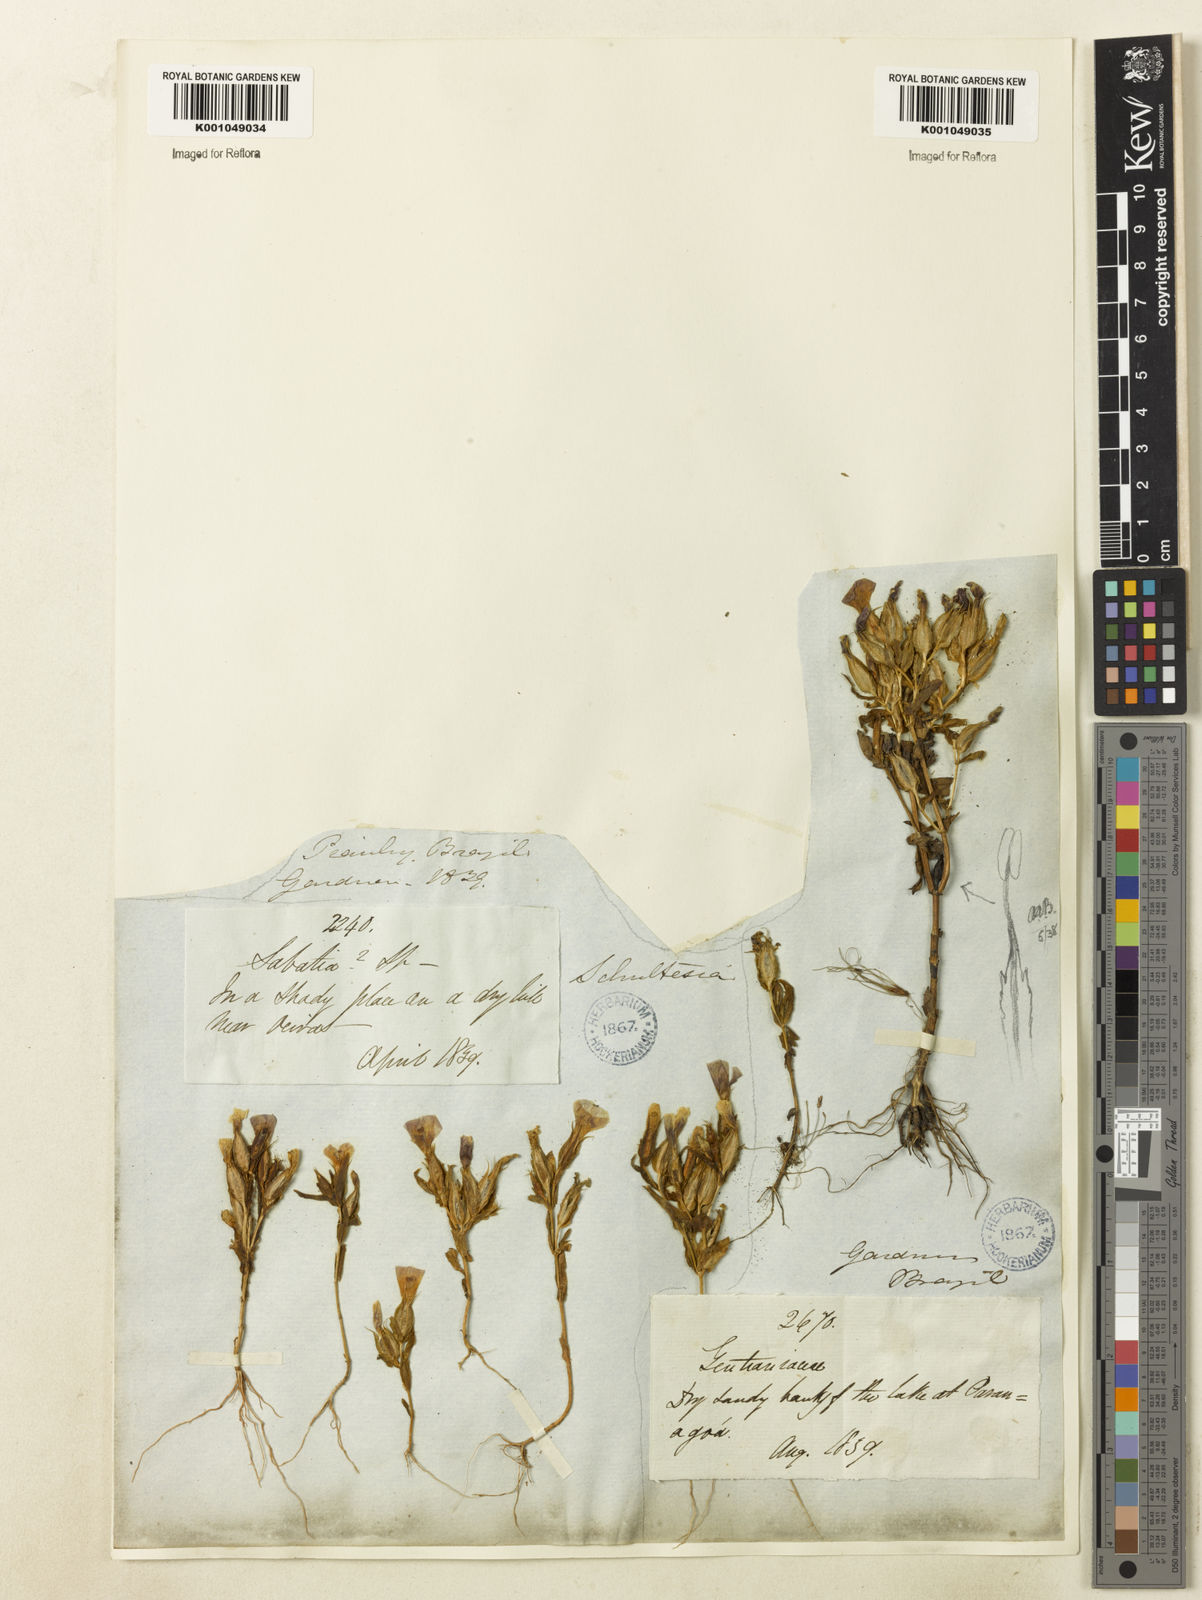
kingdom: Plantae
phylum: Tracheophyta
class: Magnoliopsida
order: Gentianales
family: Gentianaceae
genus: Schultesia
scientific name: Schultesia guianensis
